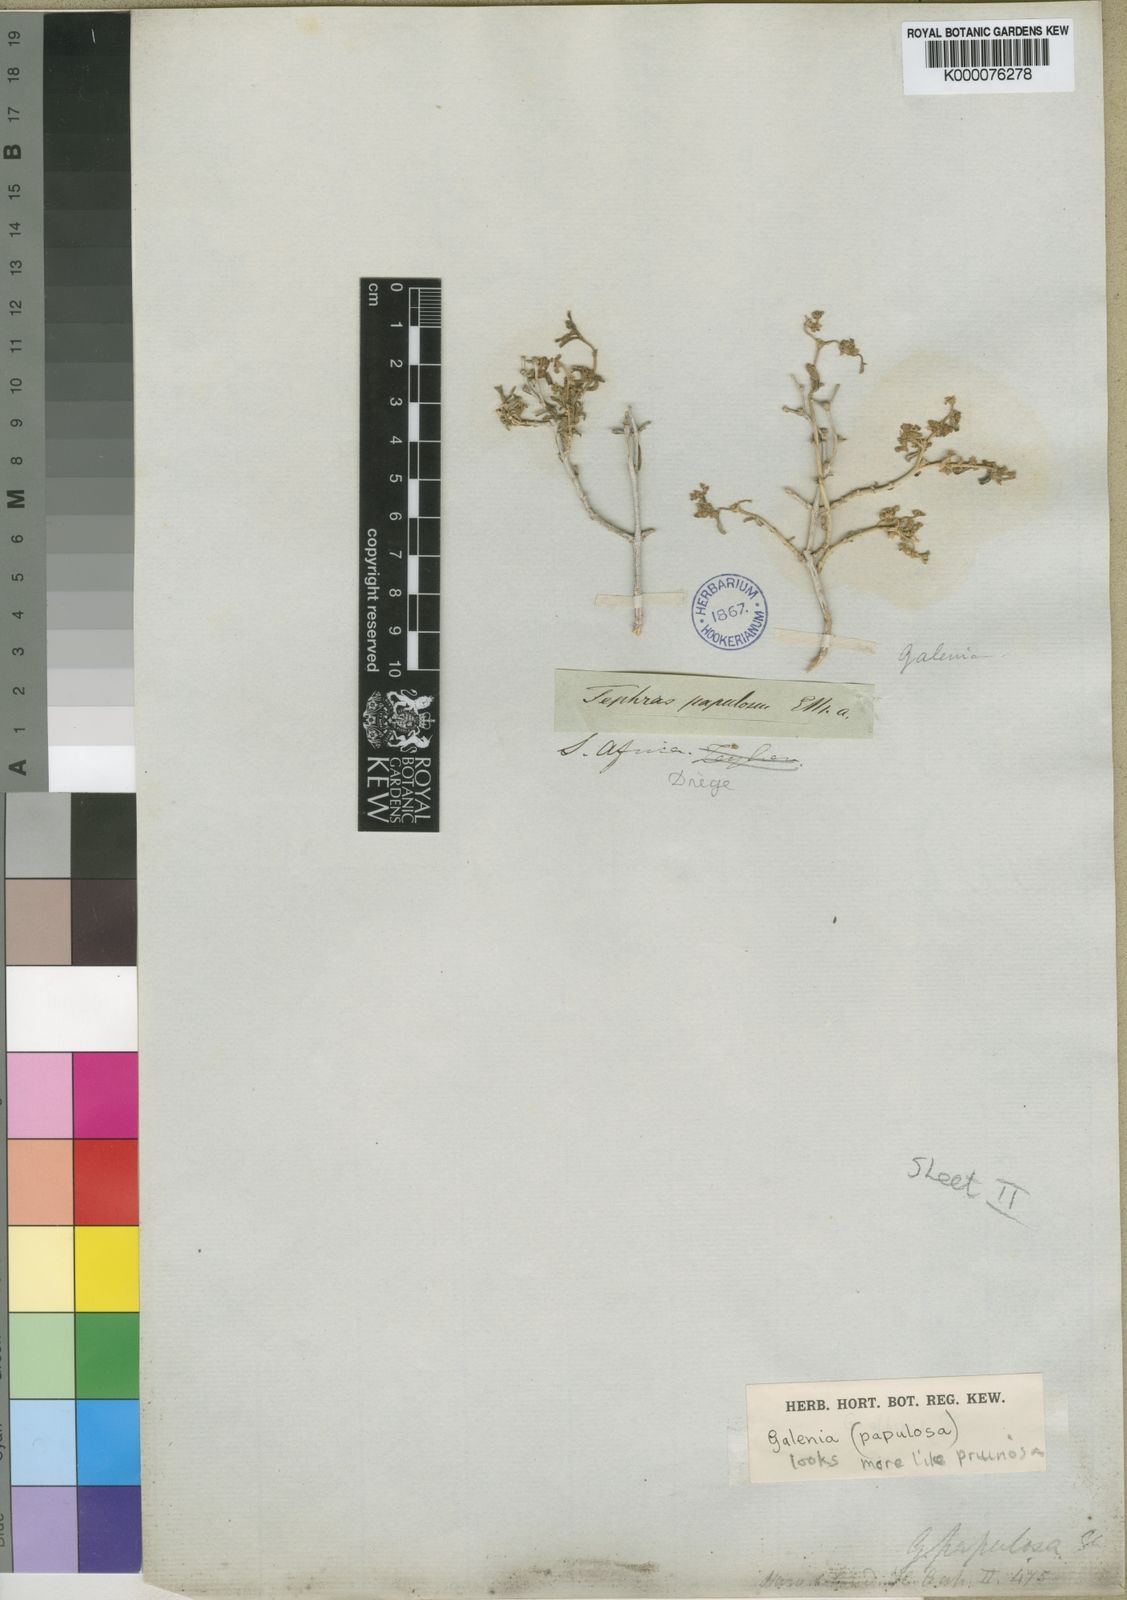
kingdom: Plantae
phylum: Tracheophyta
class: Magnoliopsida
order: Caryophyllales
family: Aizoaceae
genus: Aizoon
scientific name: Aizoon pruinosum
